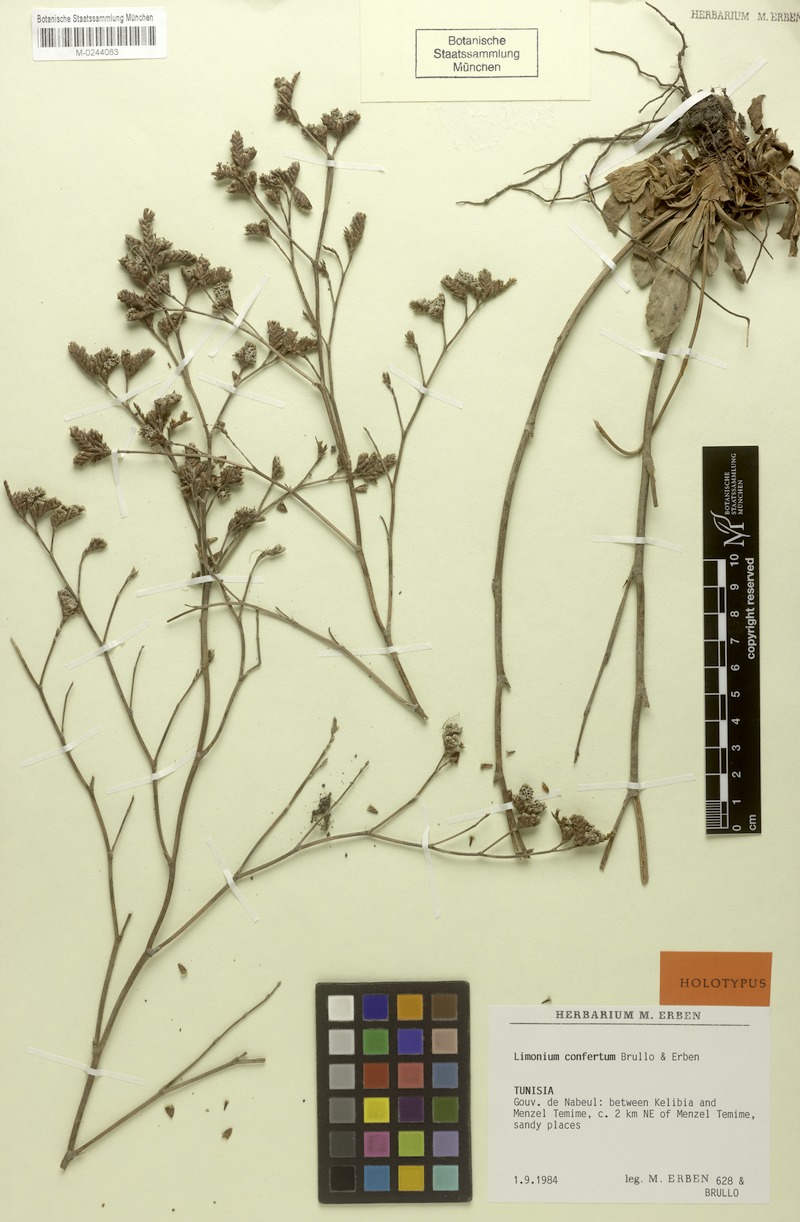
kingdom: Plantae
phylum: Tracheophyta
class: Magnoliopsida
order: Caryophyllales
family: Plumbaginaceae
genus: Limonium
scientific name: Limonium confertum
